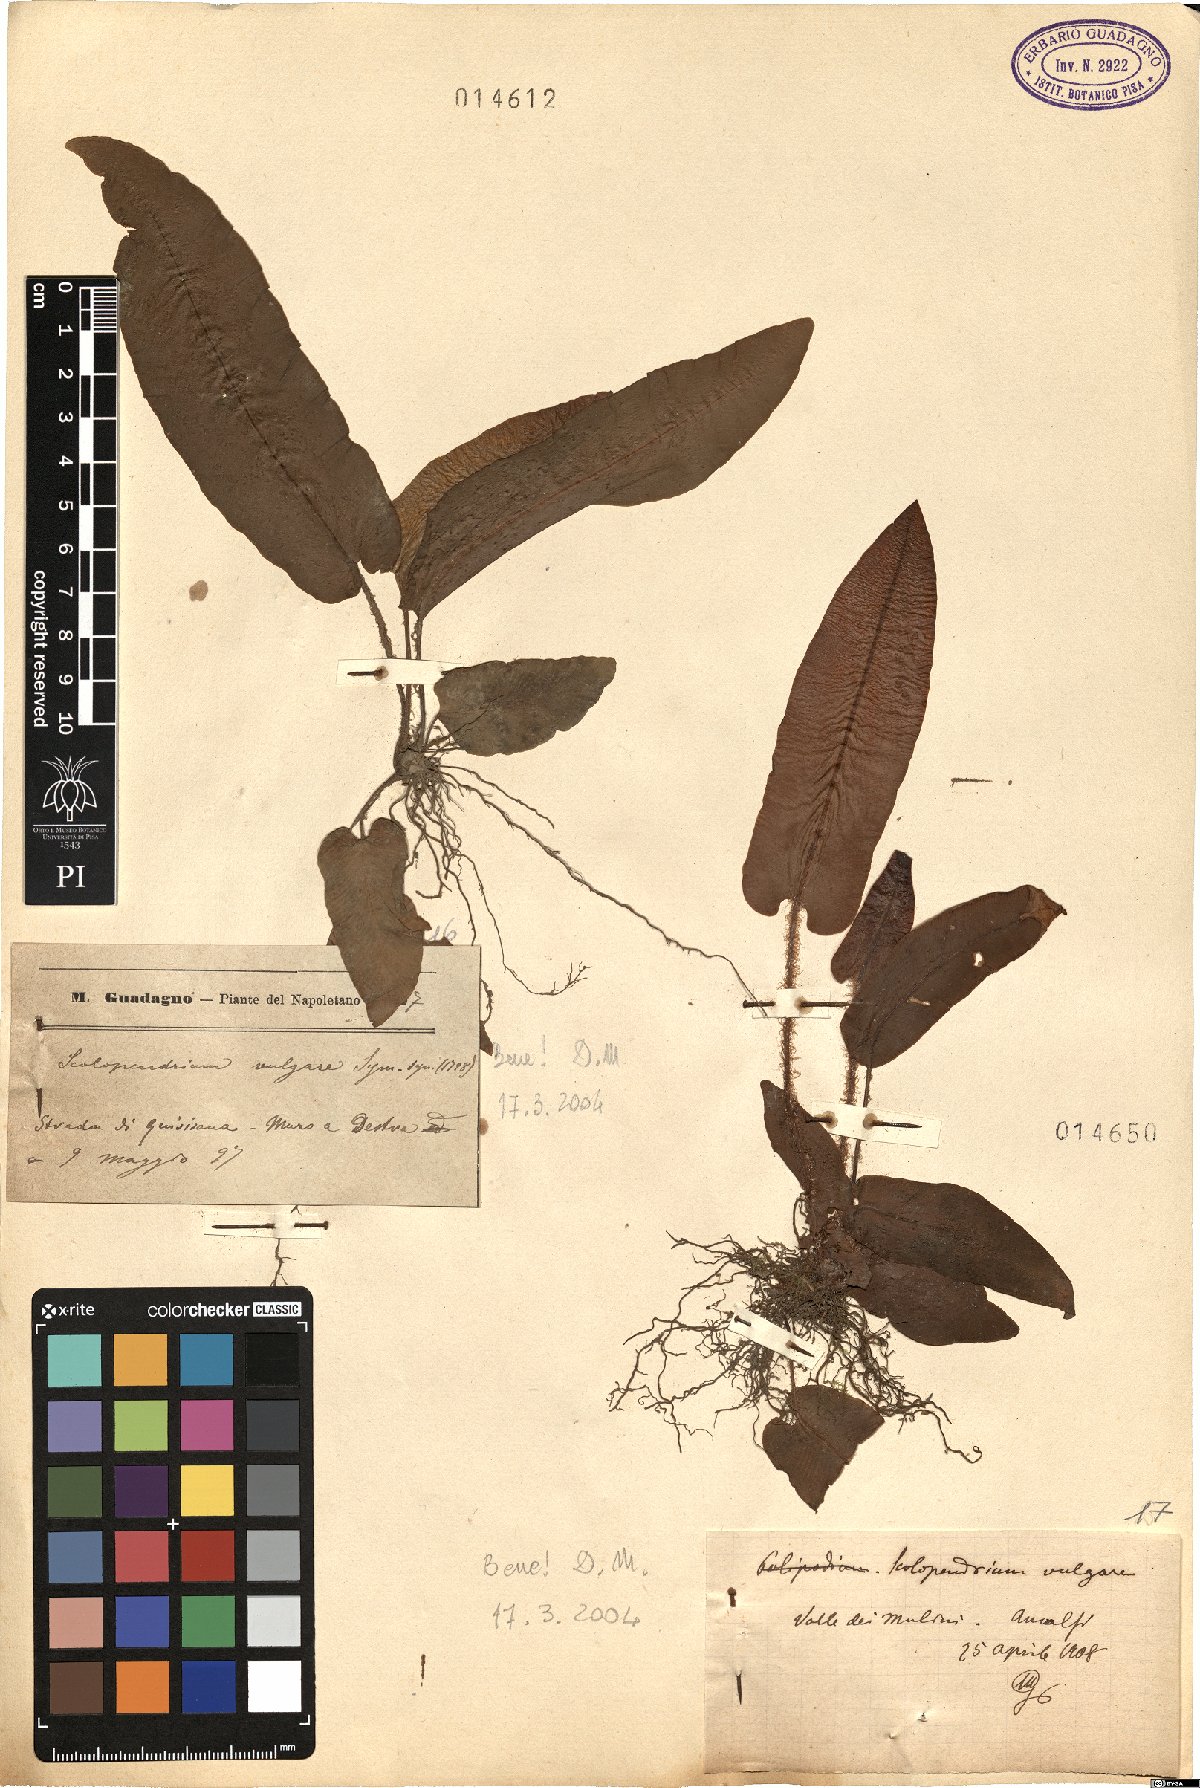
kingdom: Plantae
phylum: Tracheophyta
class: Polypodiopsida
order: Polypodiales
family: Aspleniaceae
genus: Asplenium
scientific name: Asplenium scolopendrium
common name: Hart's-tongue fern
